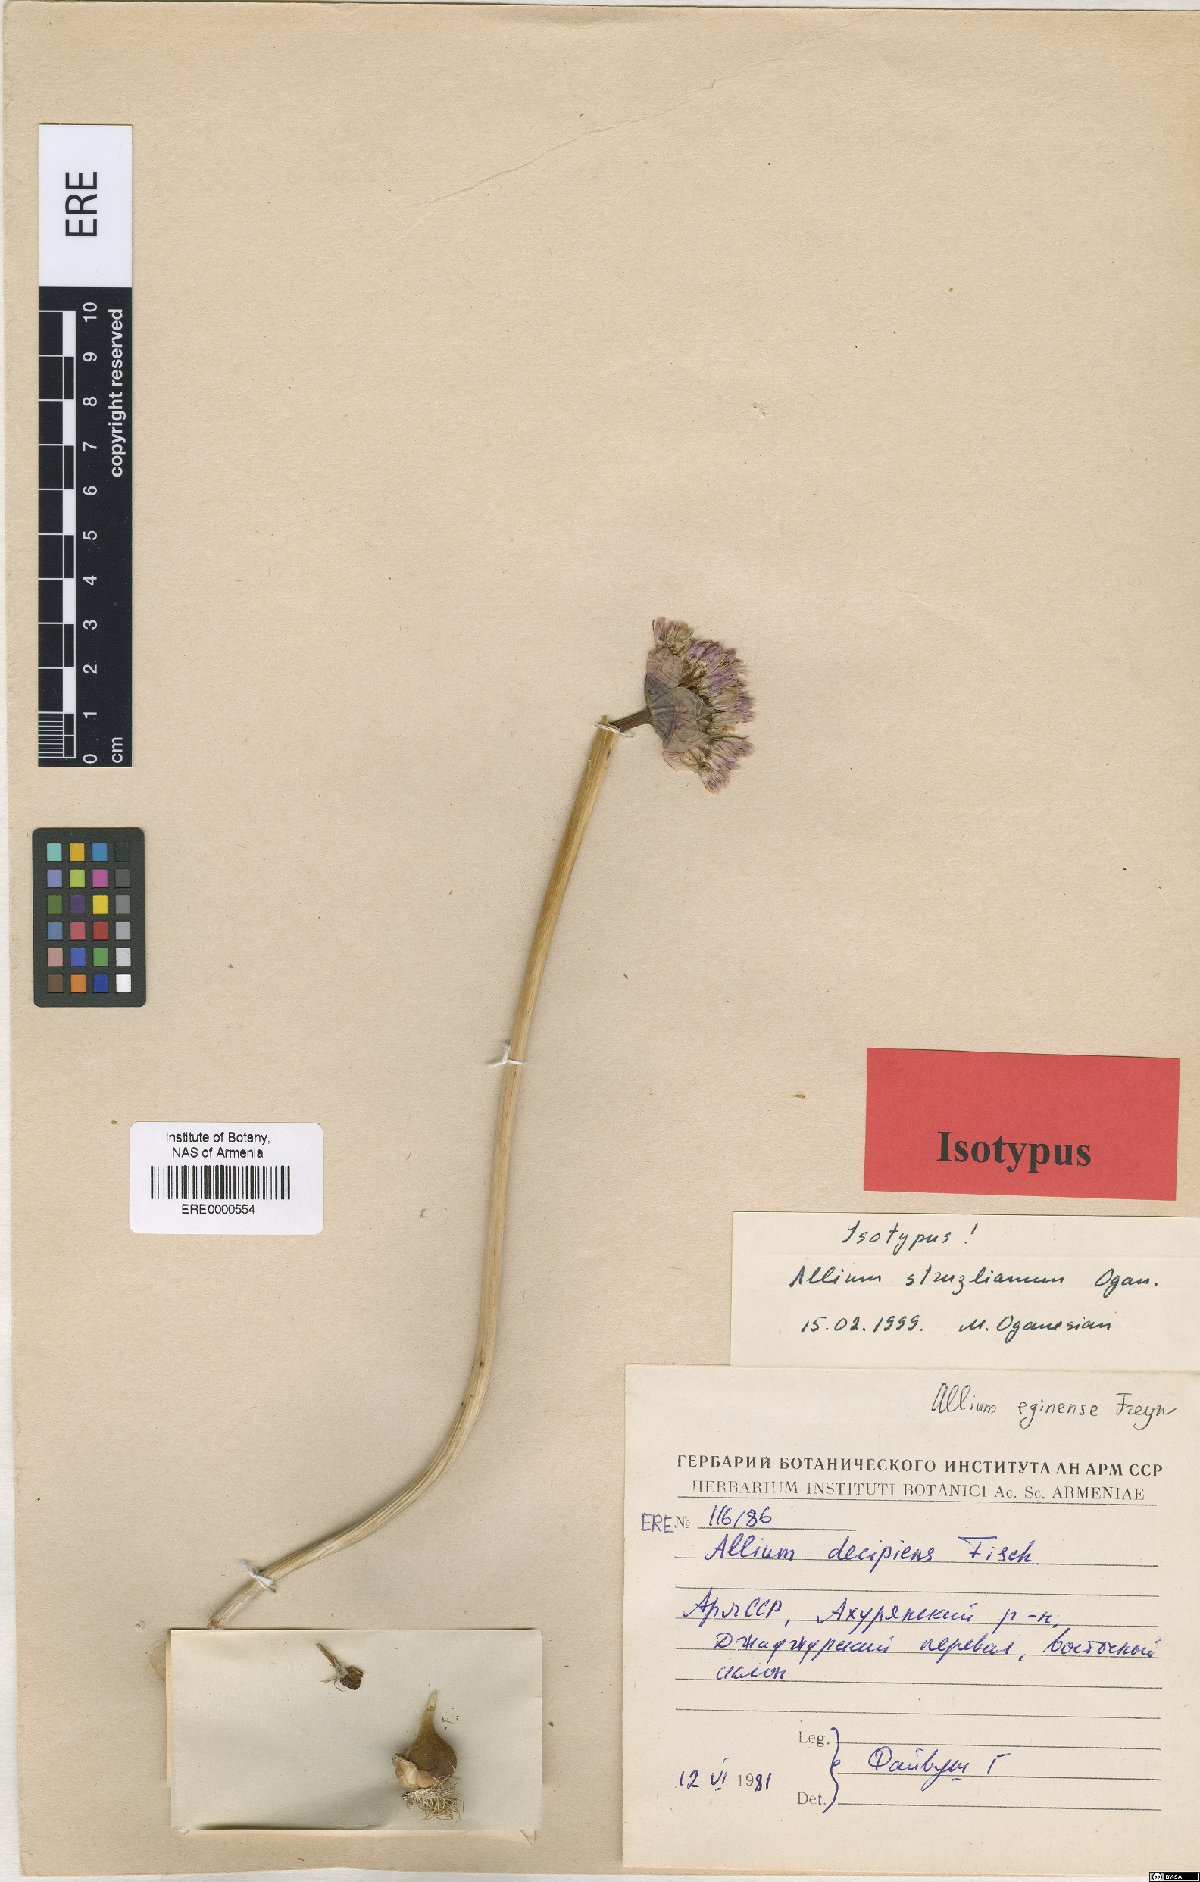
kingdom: Plantae
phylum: Tracheophyta
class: Liliopsida
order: Asparagales
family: Amaryllidaceae
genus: Allium
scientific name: Allium struzlianum
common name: Struzl's onion
